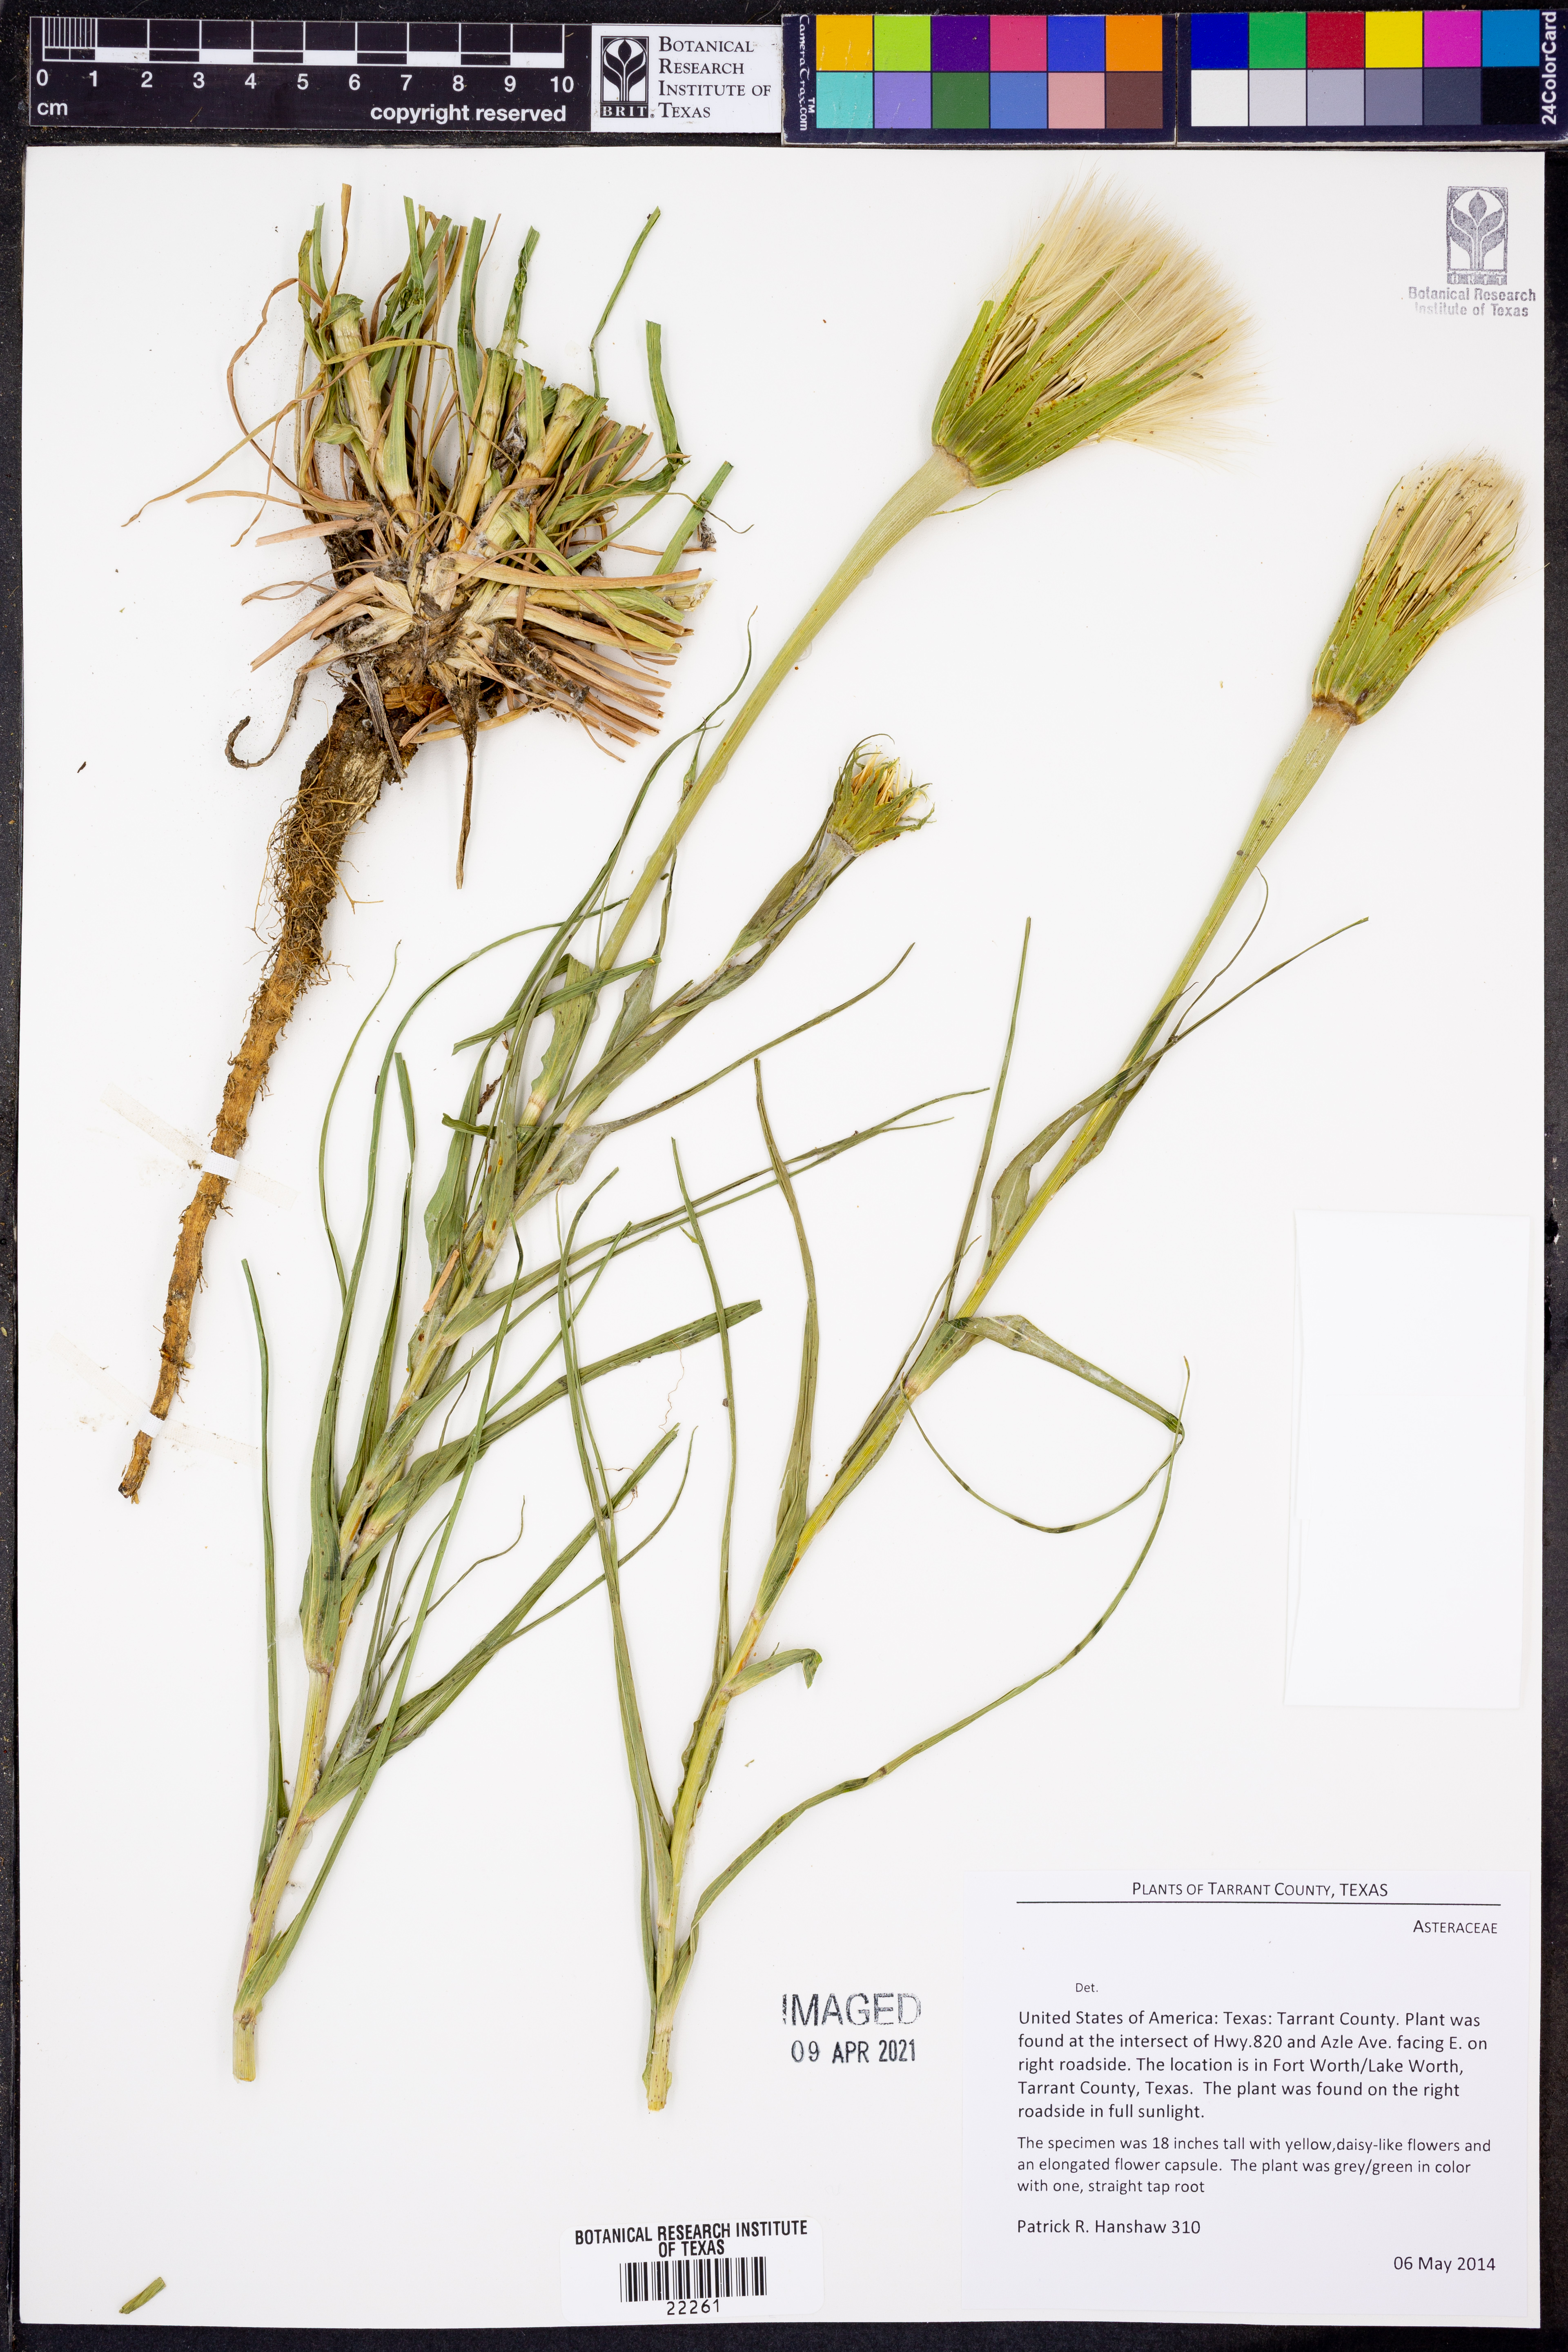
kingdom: Plantae
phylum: Tracheophyta
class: Magnoliopsida
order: Asterales
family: Asteraceae
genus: Tragopogon
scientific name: Tragopogon
